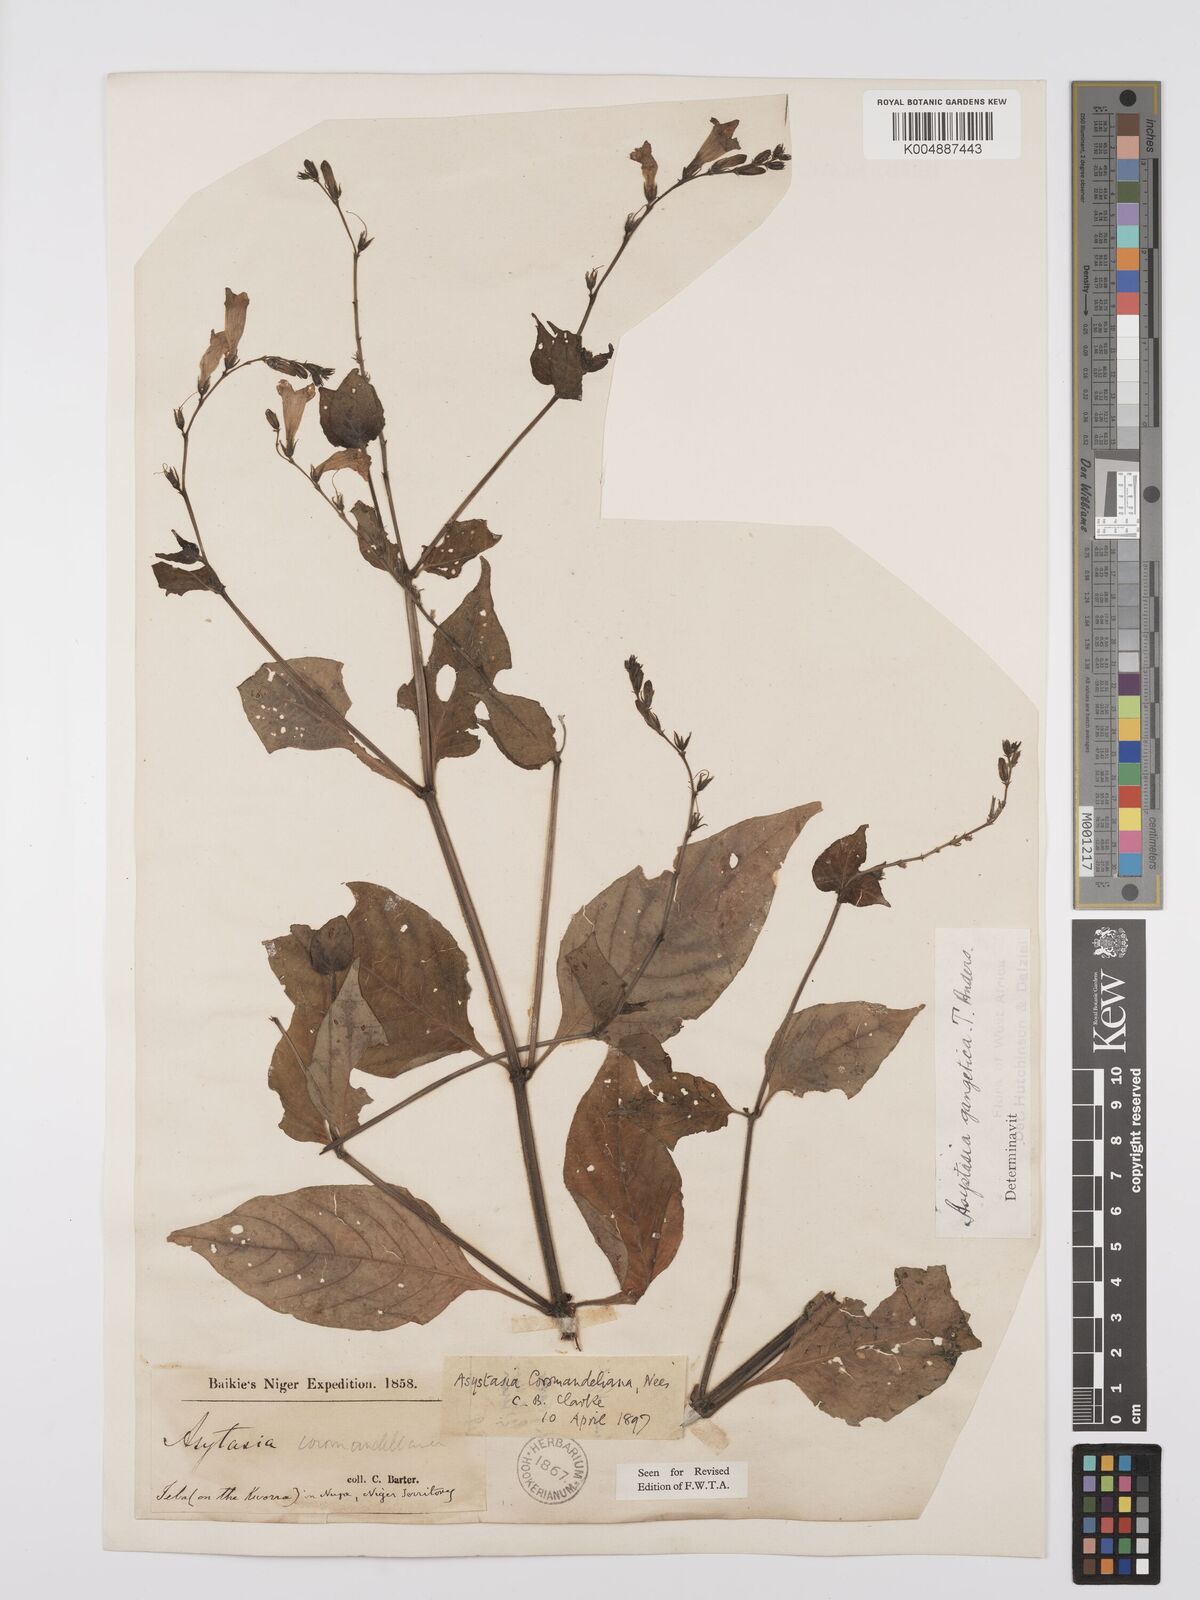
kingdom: Plantae
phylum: Tracheophyta
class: Magnoliopsida
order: Lamiales
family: Acanthaceae
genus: Asystasia
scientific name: Asystasia gangetica
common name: Chinese violet
